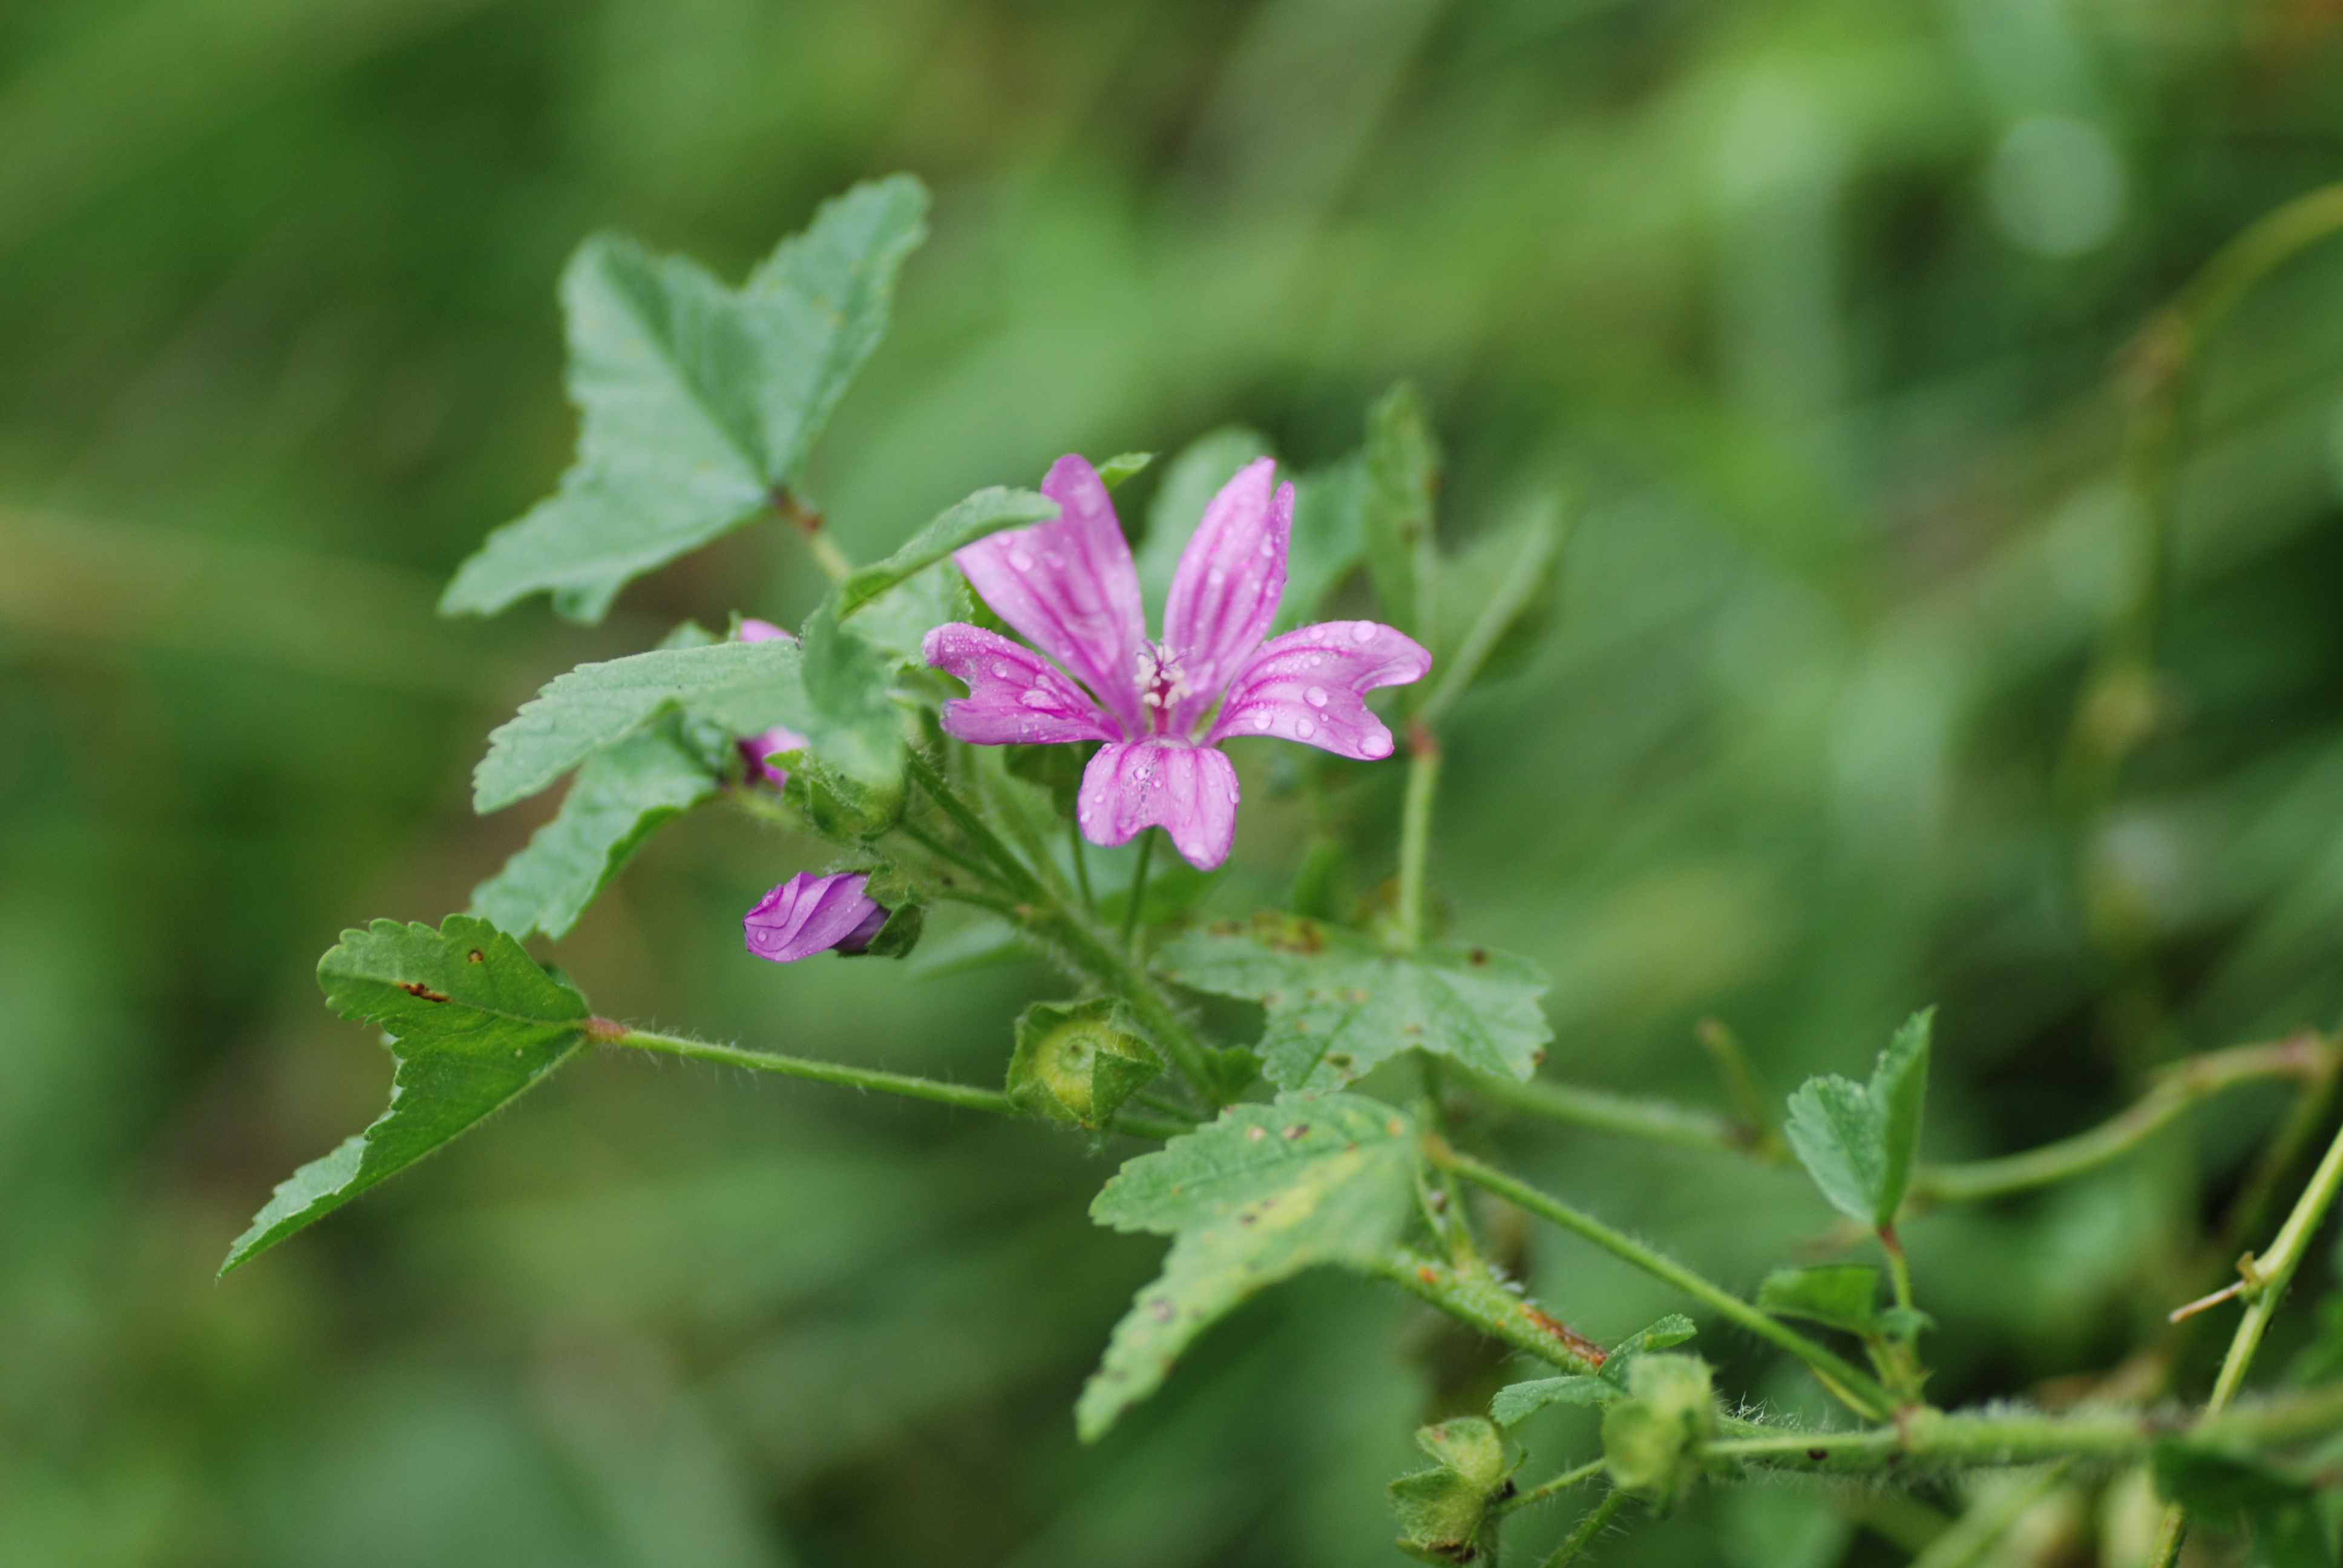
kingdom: Plantae
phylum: Tracheophyta
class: Magnoliopsida
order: Malvales
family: Malvaceae
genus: Malva
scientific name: Malva sylvestris
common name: Common mallow
